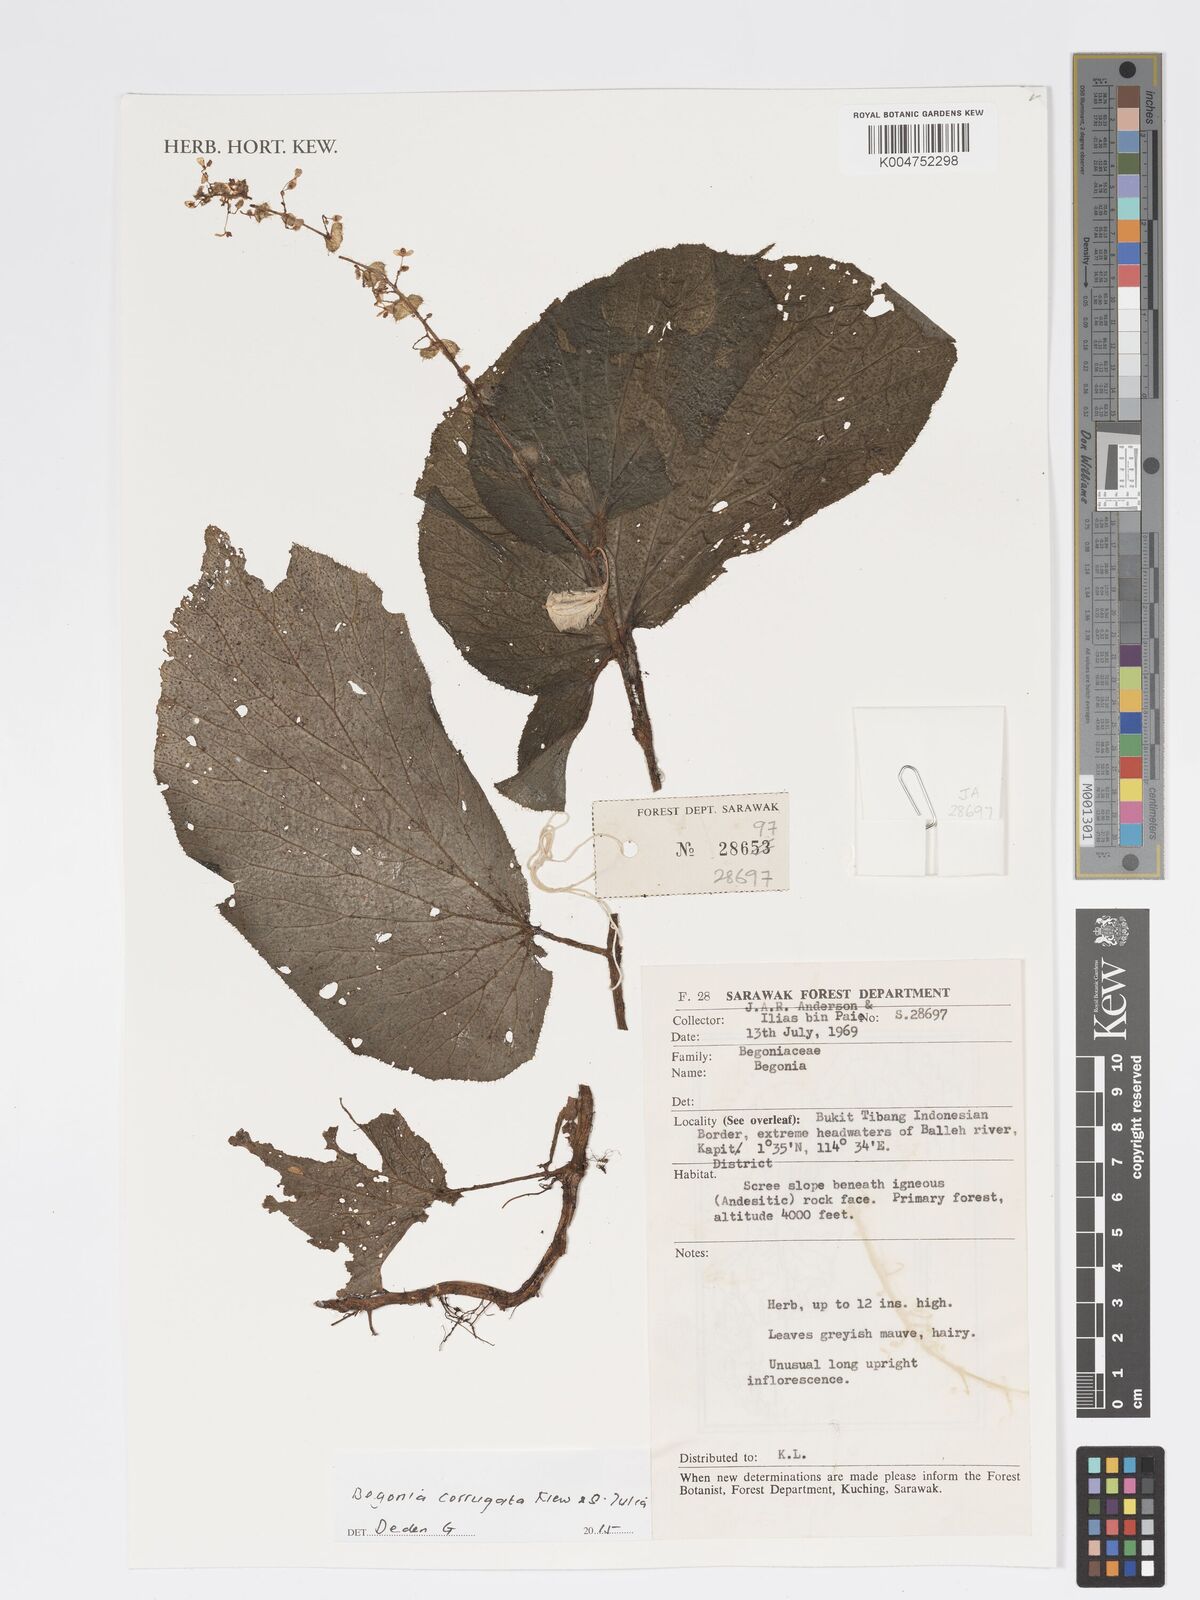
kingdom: Plantae
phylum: Tracheophyta
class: Magnoliopsida
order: Cucurbitales
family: Begoniaceae
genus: Begonia
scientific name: Begonia corrugata
